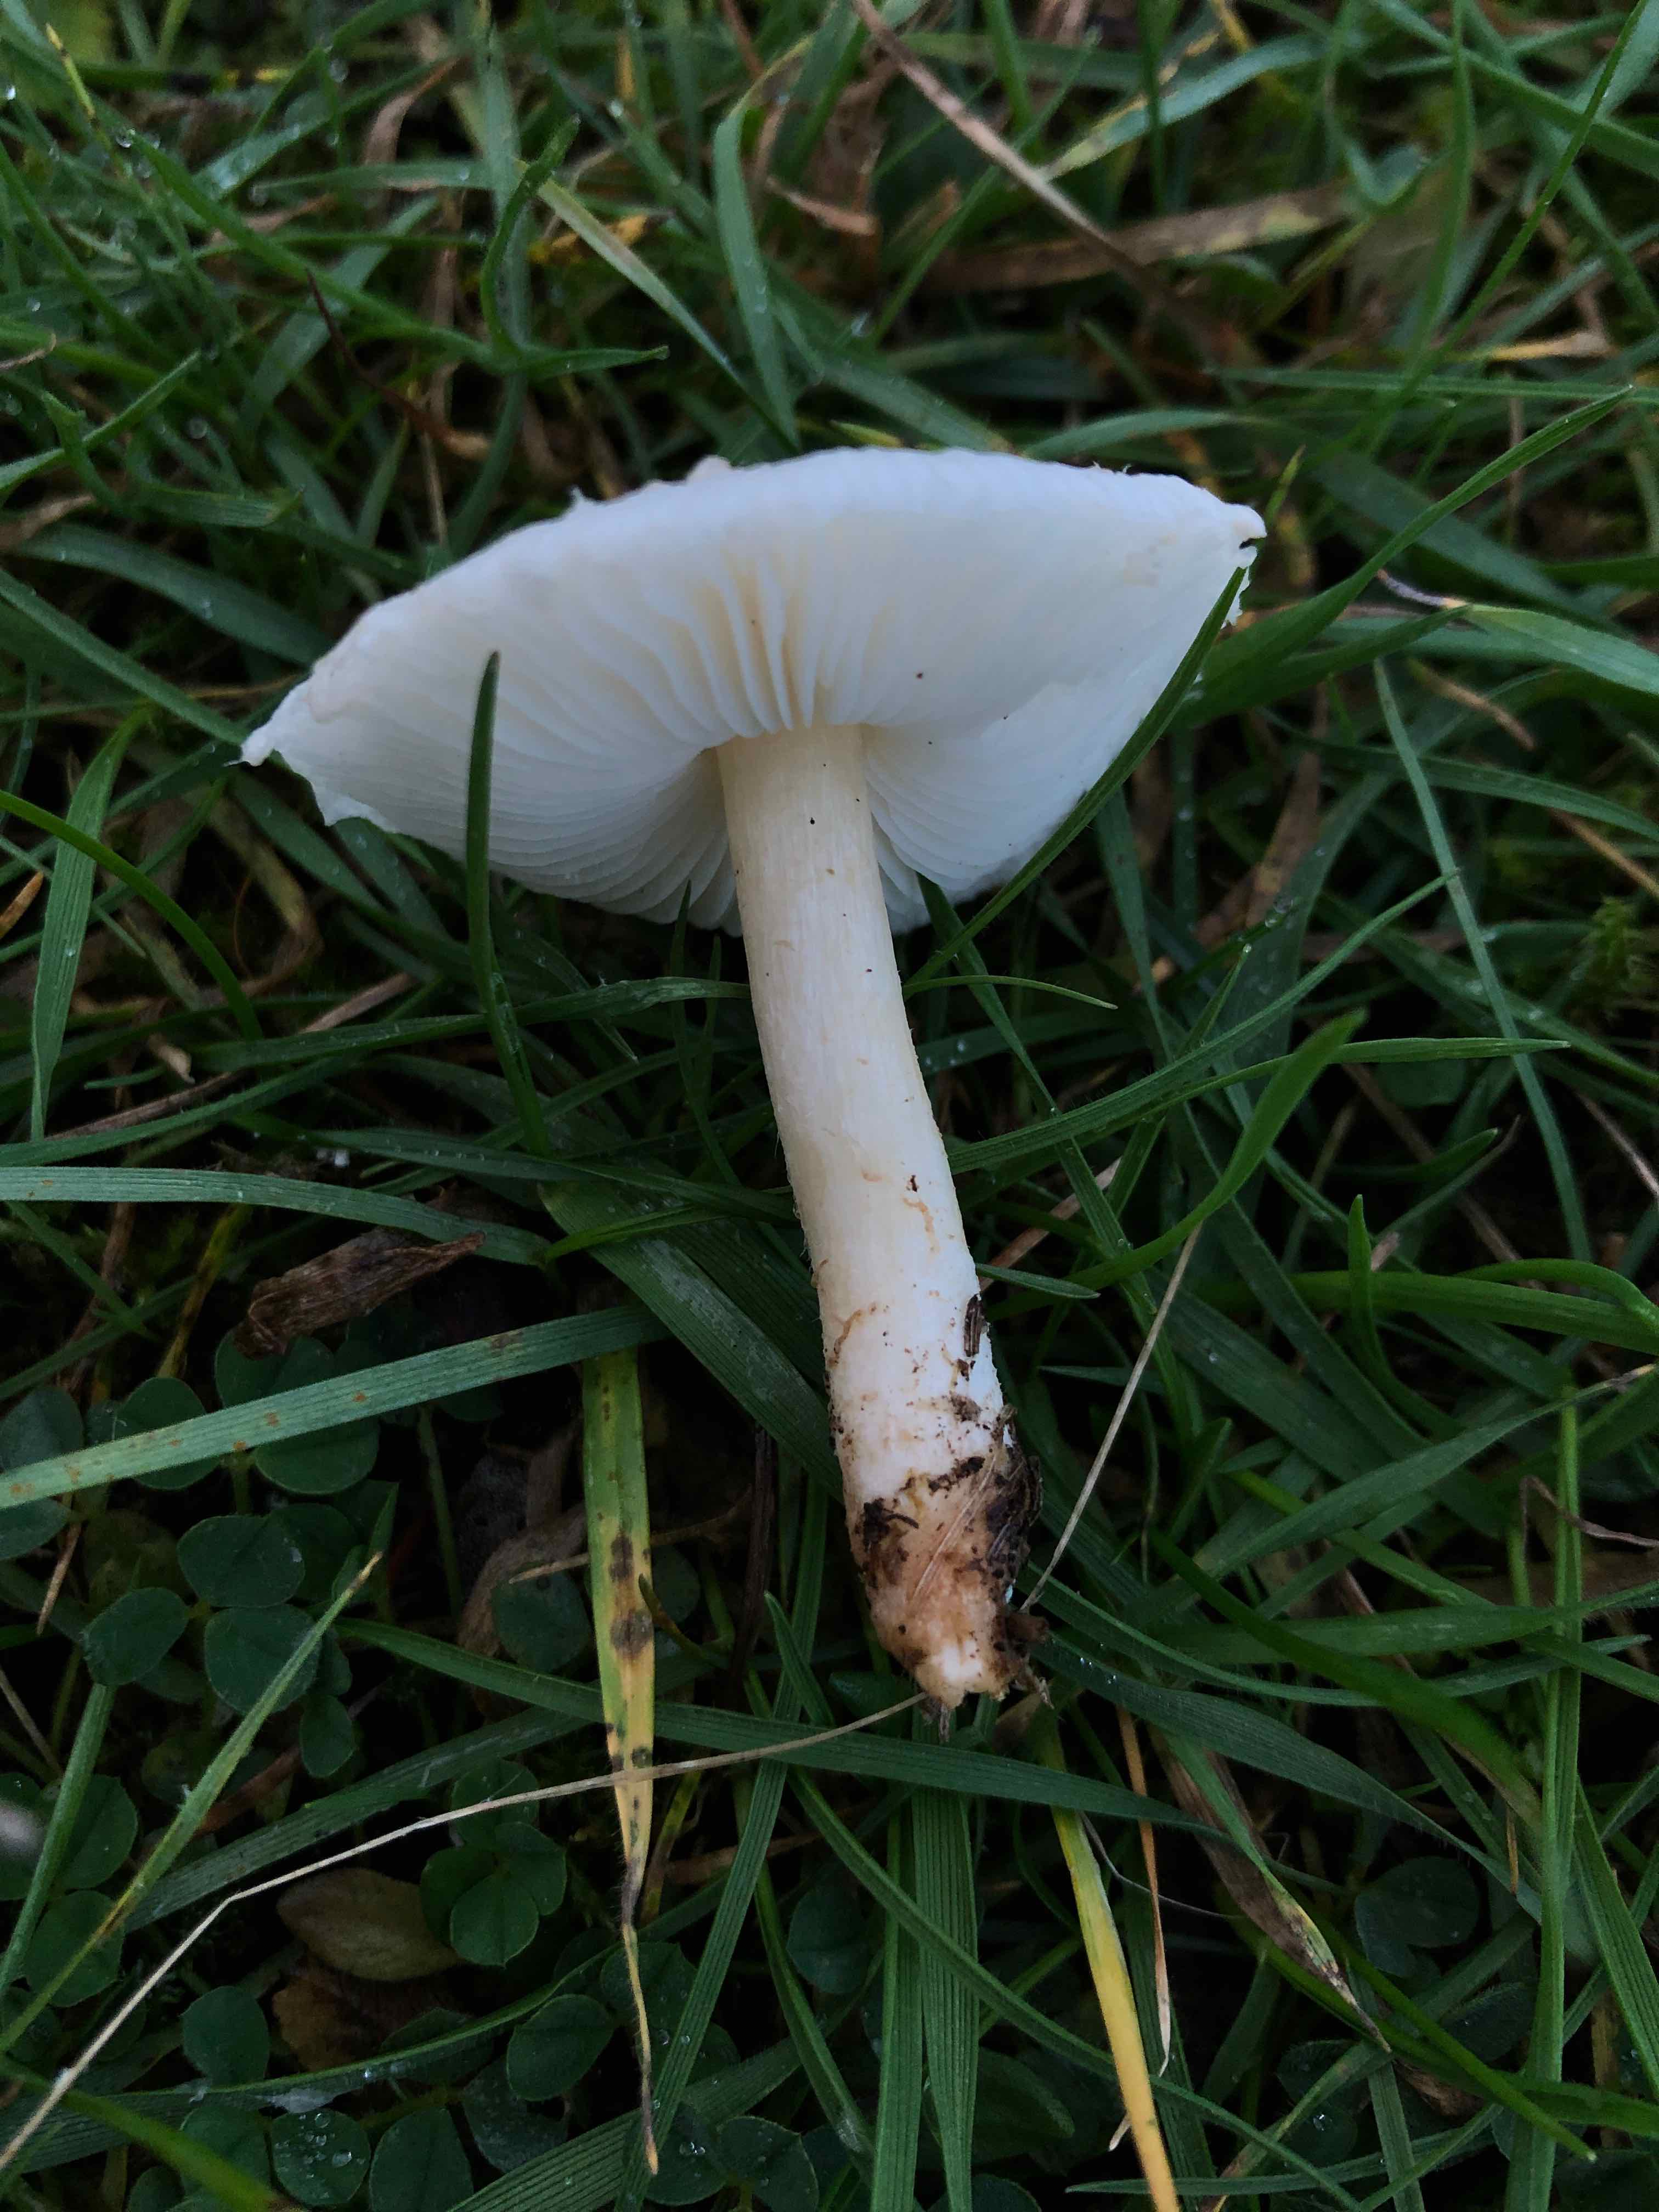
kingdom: Fungi
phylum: Basidiomycota
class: Agaricomycetes
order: Agaricales
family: Agaricaceae
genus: Lepiota
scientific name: Lepiota erminea
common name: hvid parasolhat
